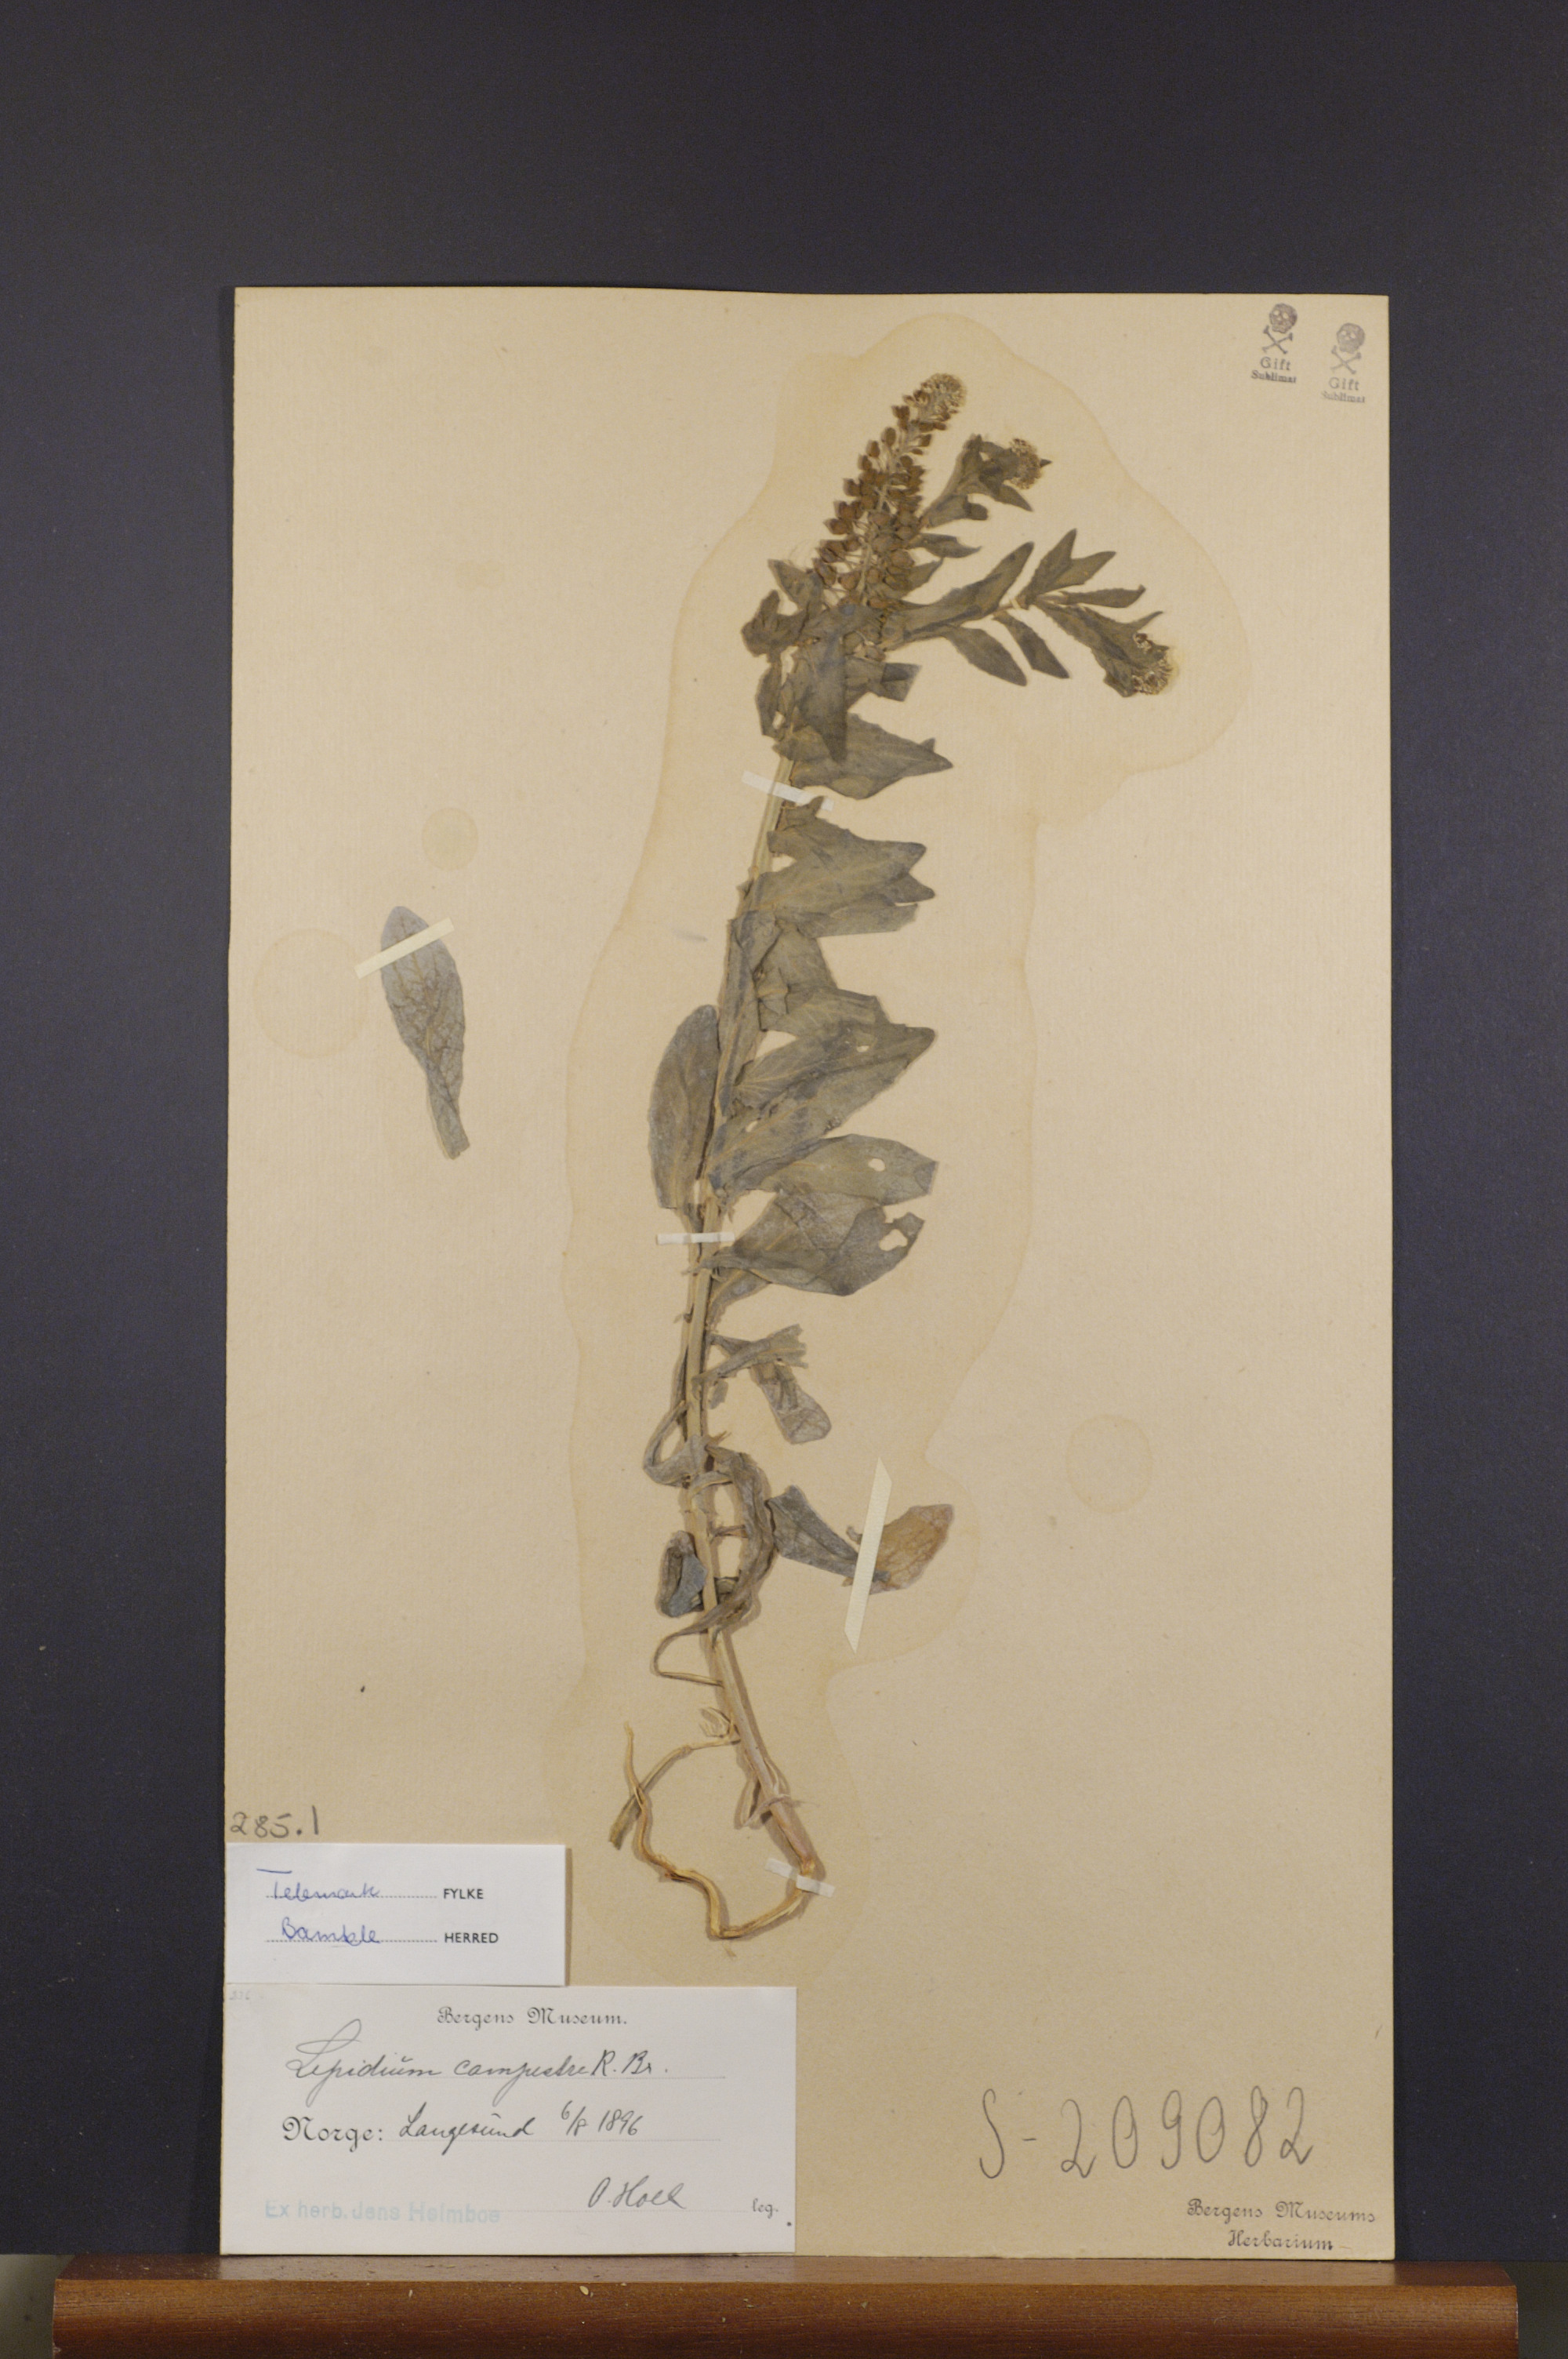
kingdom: Plantae
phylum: Tracheophyta
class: Magnoliopsida
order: Brassicales
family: Brassicaceae
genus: Lepidium
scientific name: Lepidium campestre
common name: Field pepperwort
